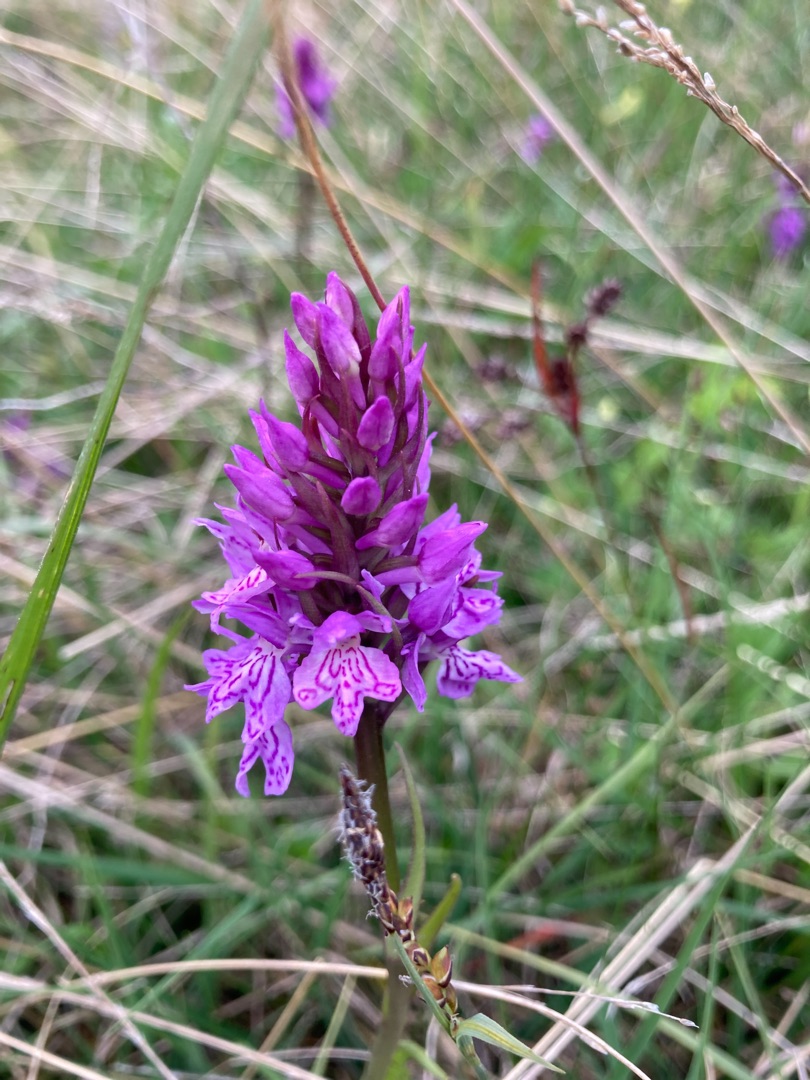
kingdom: Plantae
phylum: Tracheophyta
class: Liliopsida
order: Asparagales
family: Orchidaceae
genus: Dactylorhiza
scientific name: Dactylorhiza maculata
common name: Plettet gøgeurt
